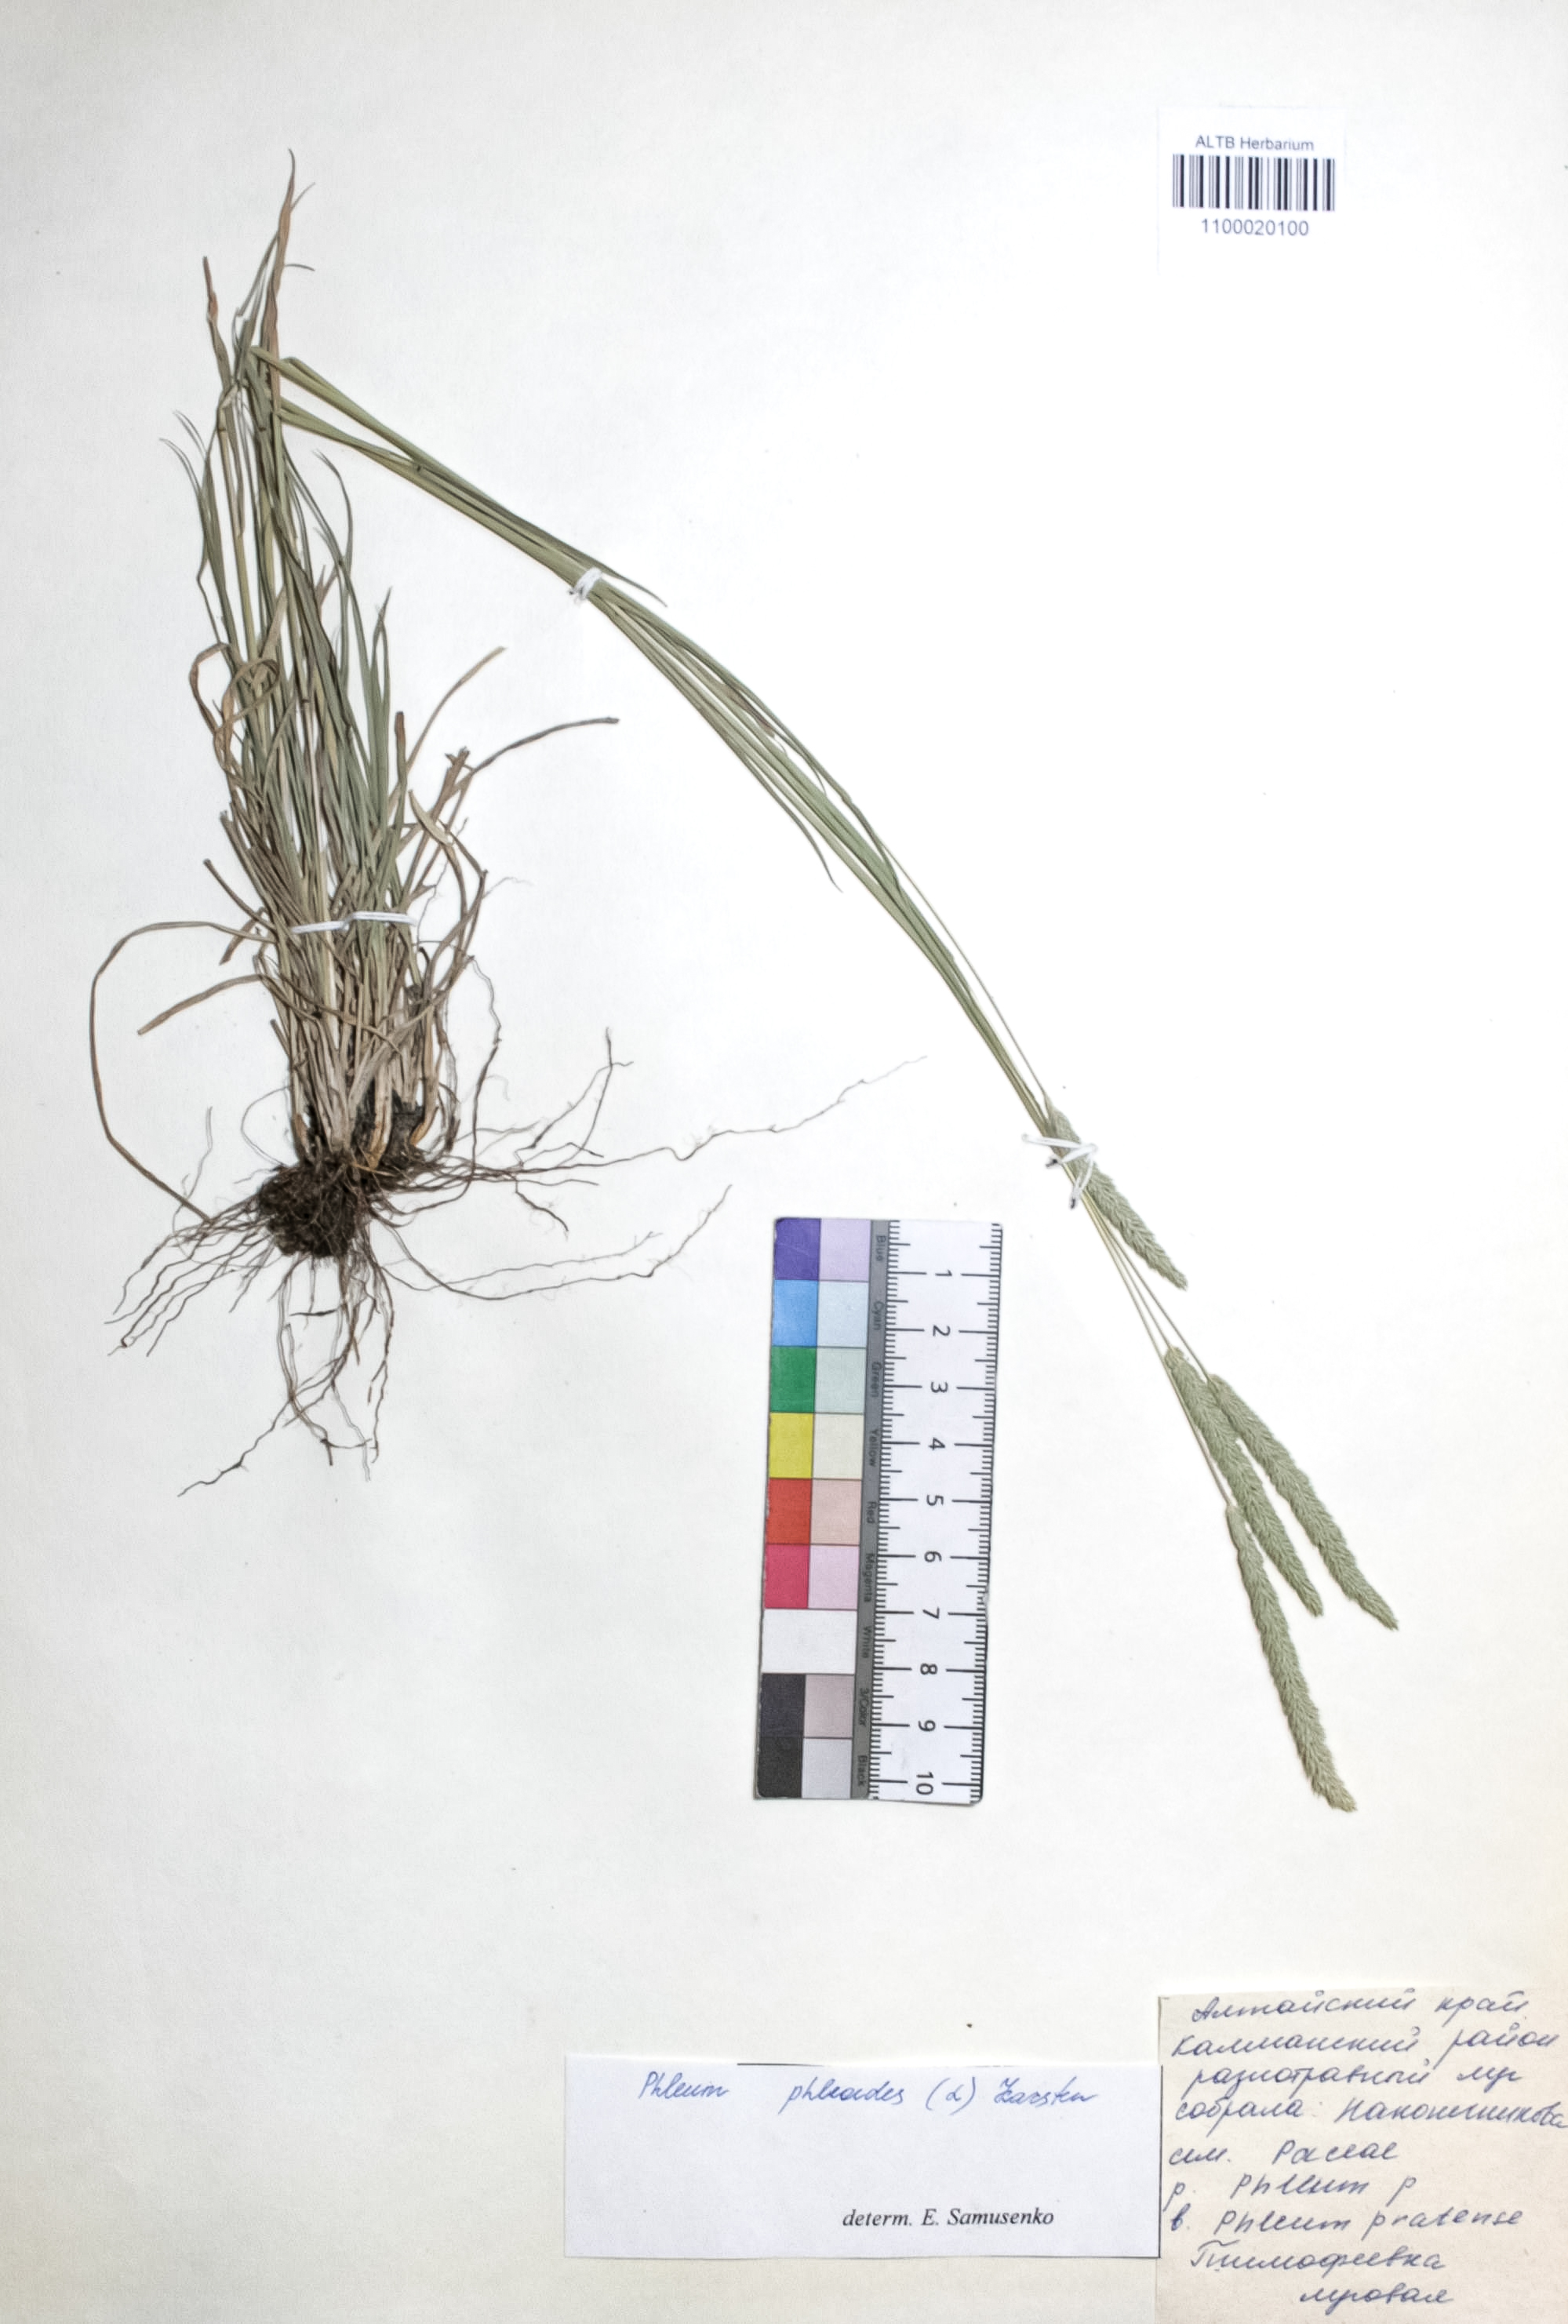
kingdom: Plantae
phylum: Tracheophyta
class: Liliopsida
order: Poales
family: Poaceae
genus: Phleum
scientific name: Phleum phleoides
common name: Purple-stem cat's-tail
